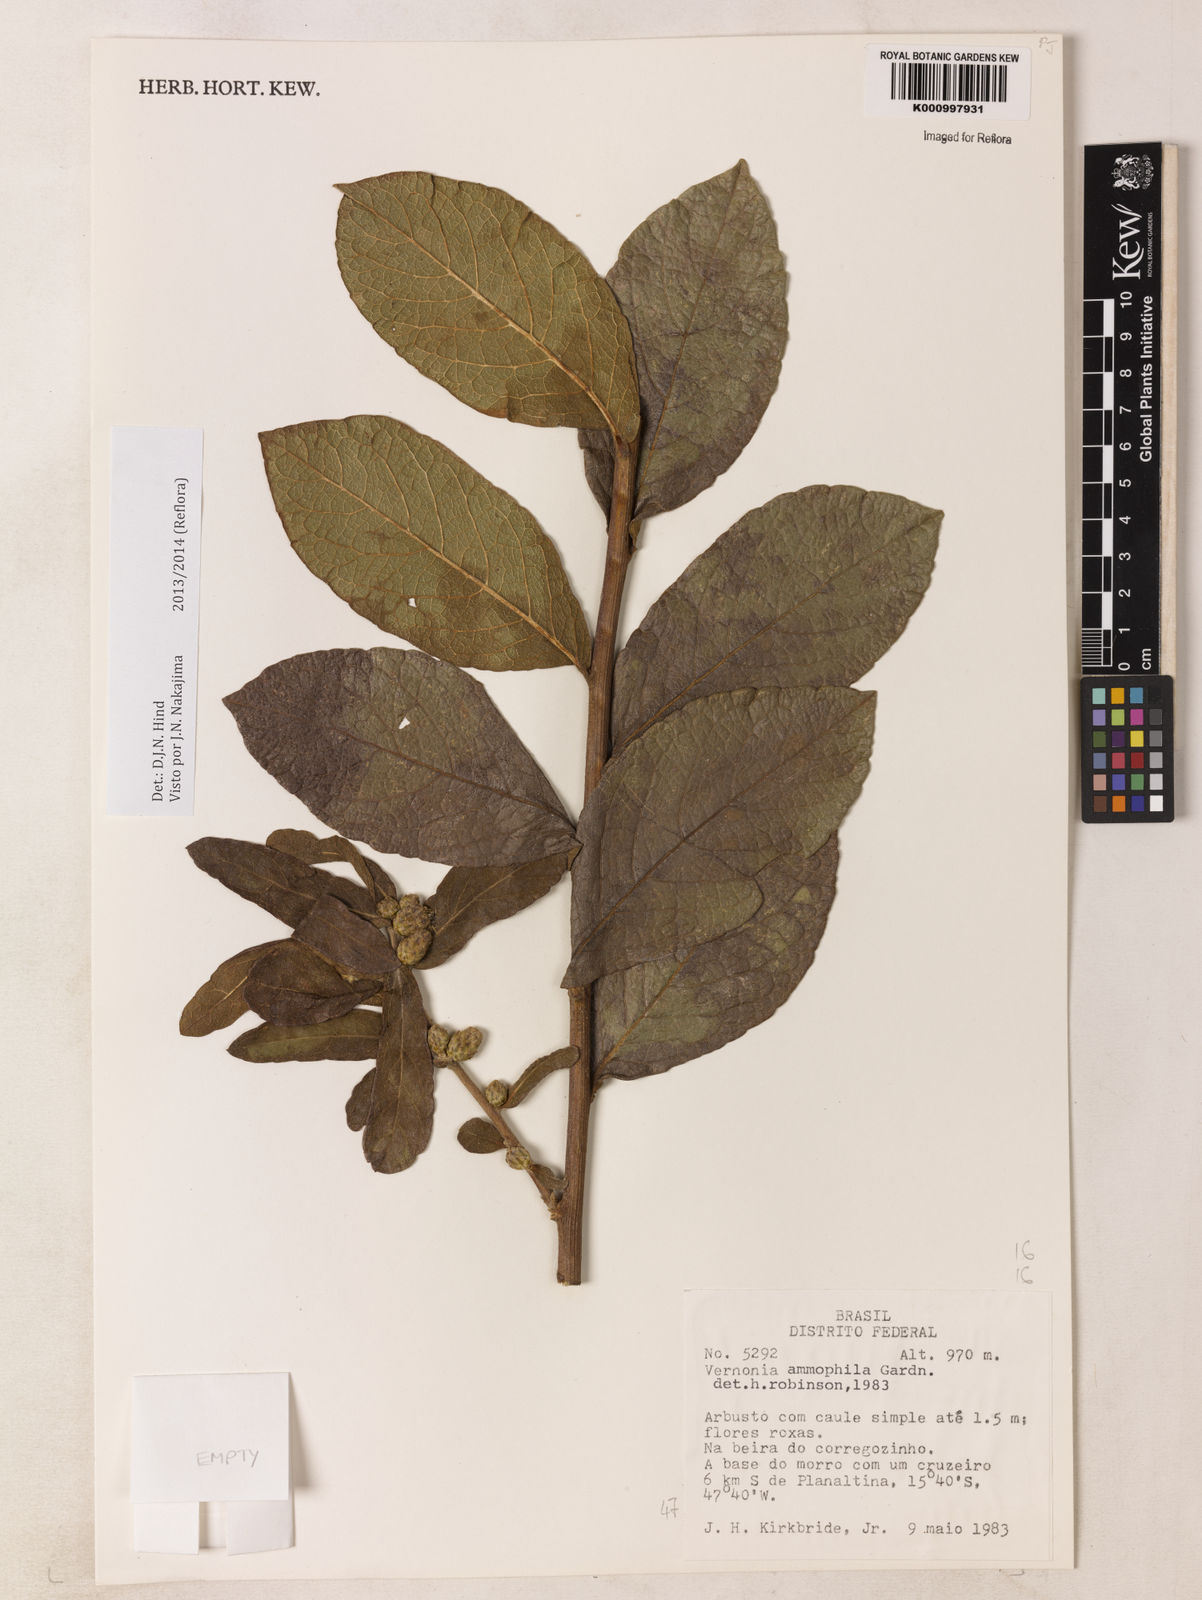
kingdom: Plantae
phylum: Tracheophyta
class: Magnoliopsida
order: Asterales
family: Asteraceae
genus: Lessingianthus
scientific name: Lessingianthus ammophilus
